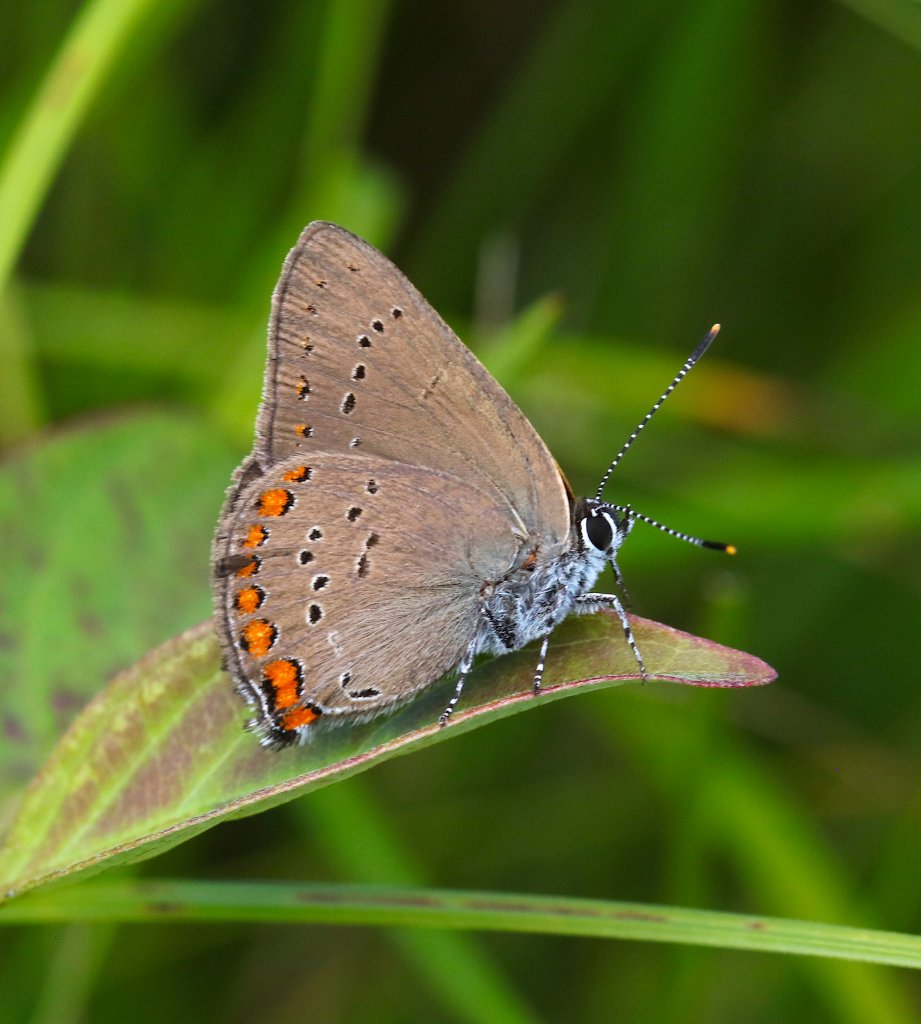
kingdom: Animalia
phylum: Arthropoda
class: Insecta
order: Lepidoptera
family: Lycaenidae
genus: Harkenclenus
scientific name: Harkenclenus titus
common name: Coral Hairstreak
